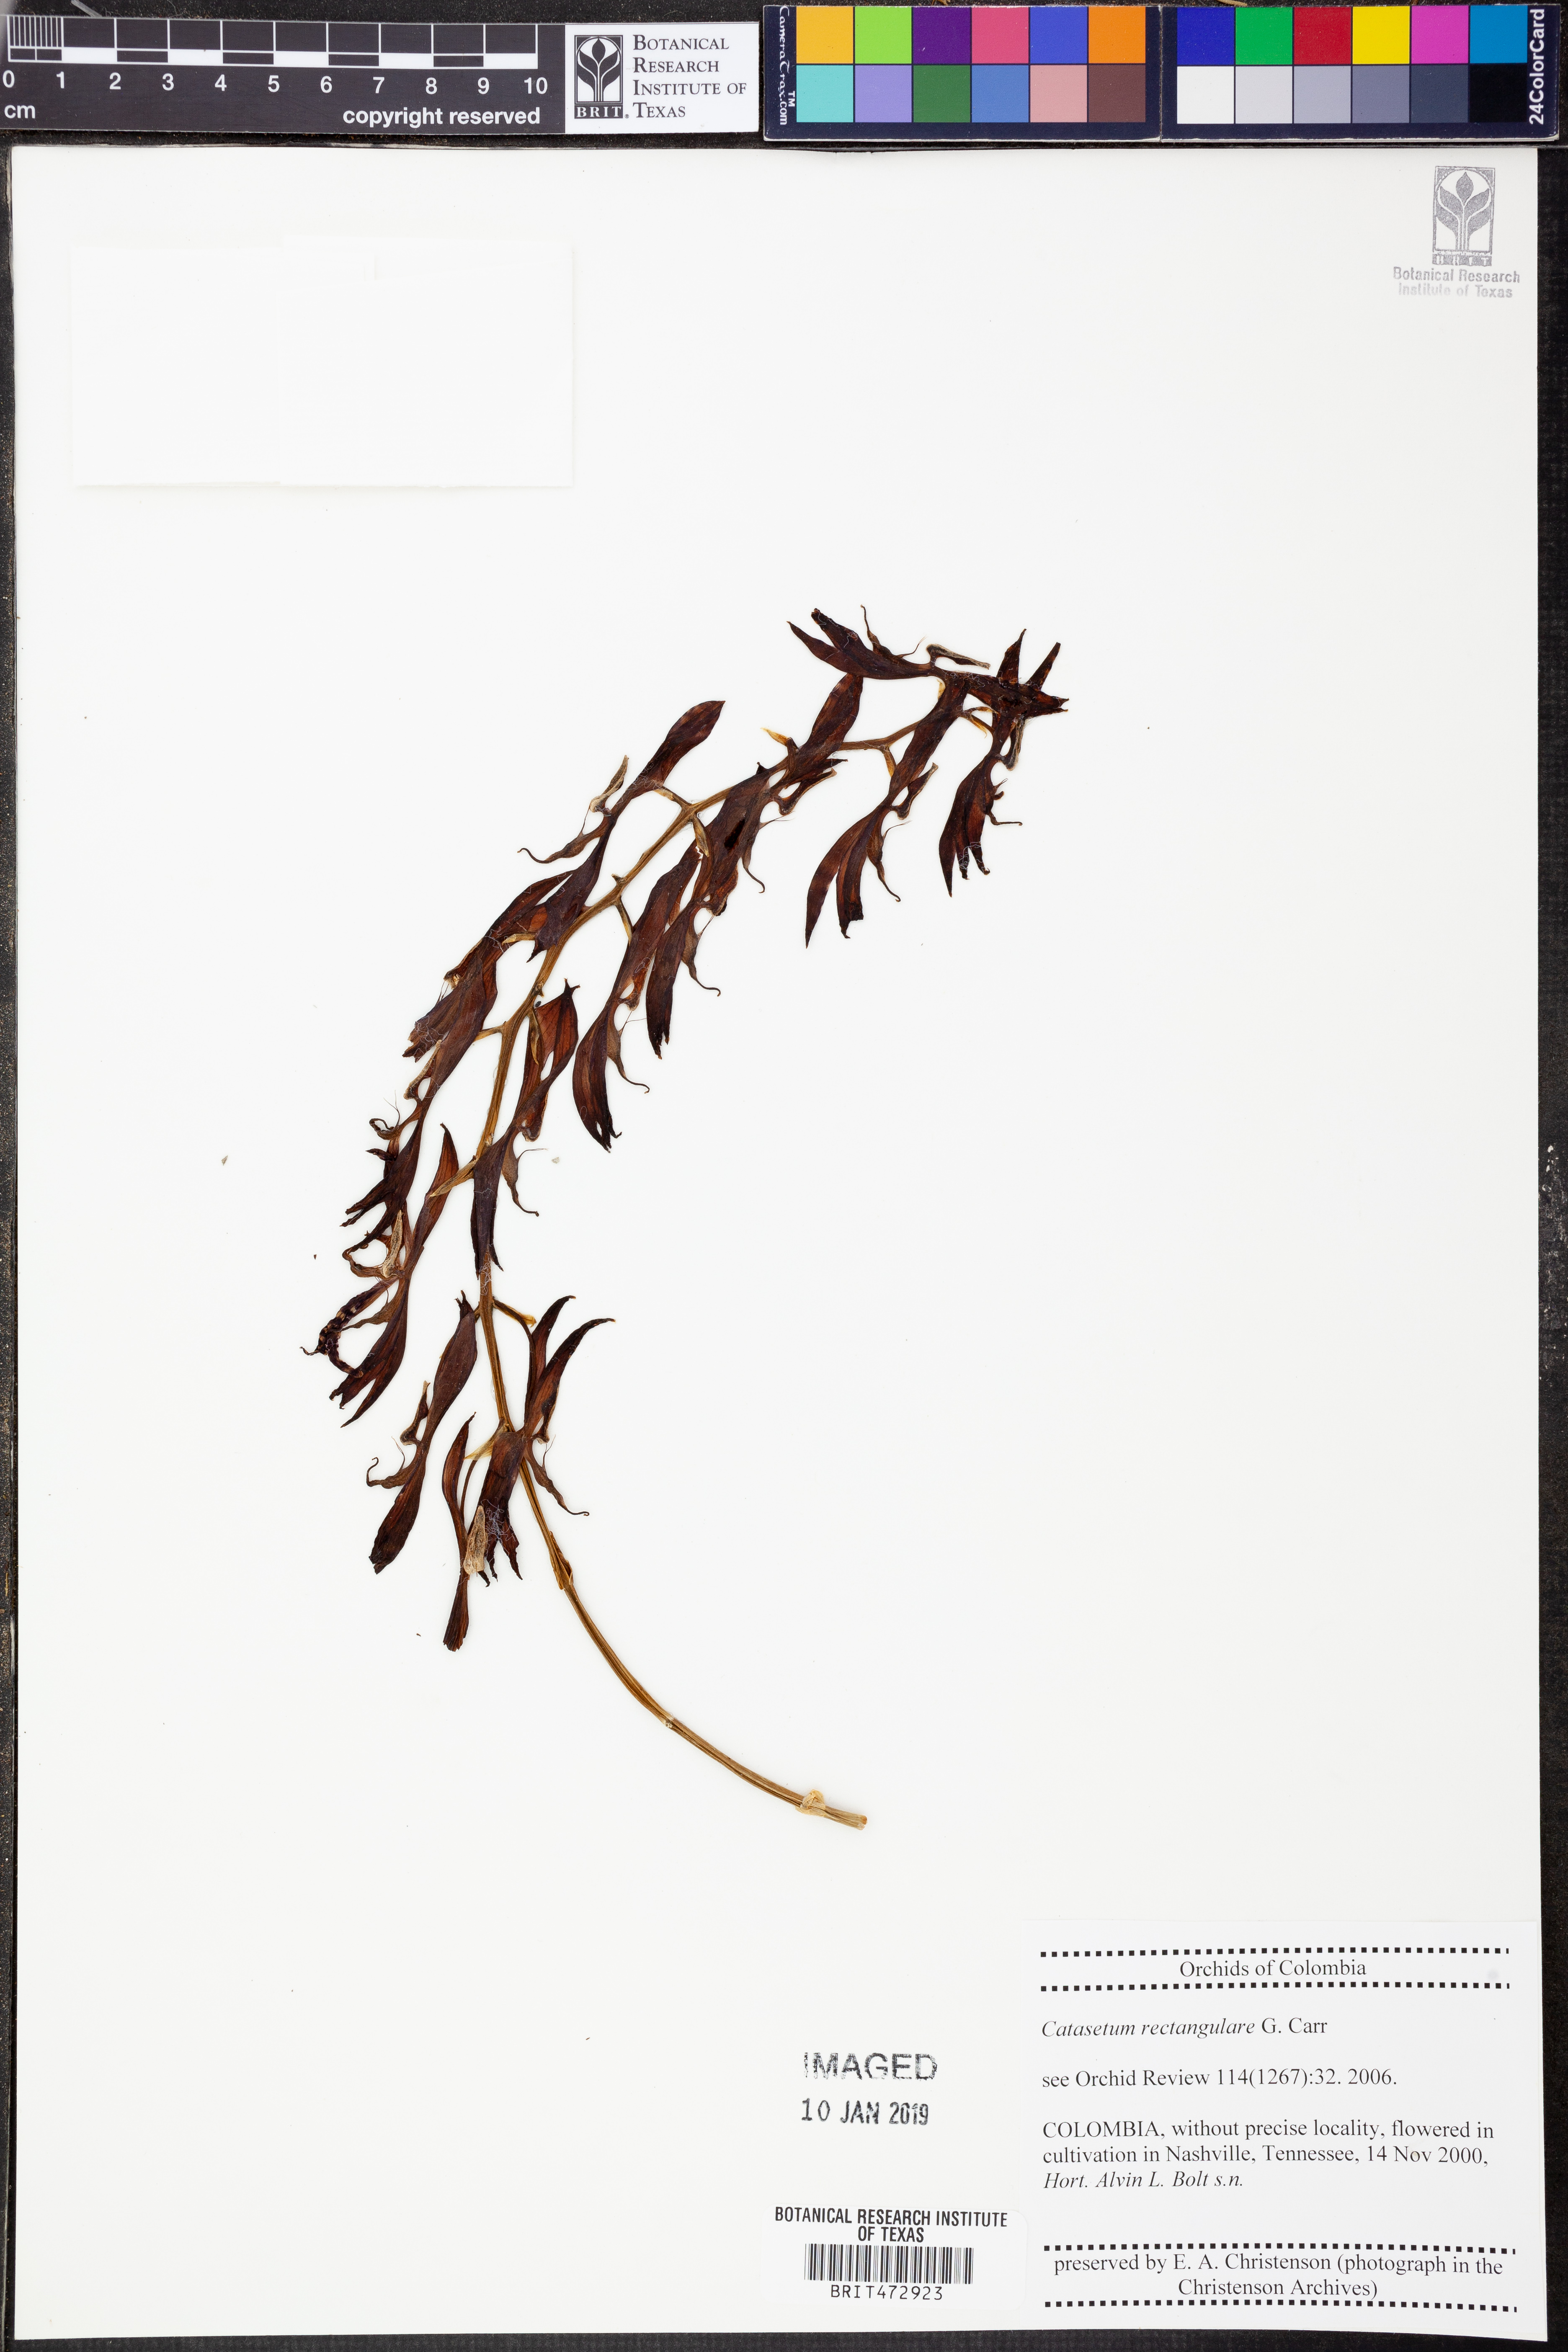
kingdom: Plantae
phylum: Tracheophyta
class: Liliopsida
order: Asparagales
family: Orchidaceae
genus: Catasetum
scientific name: Catasetum rectangulare
